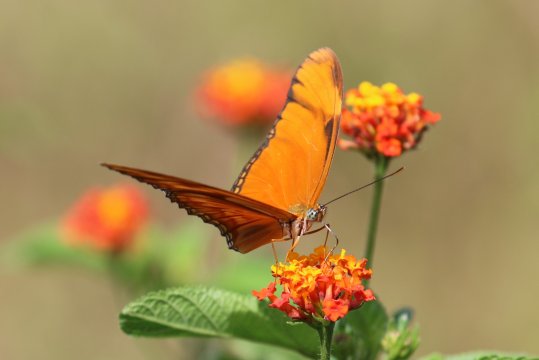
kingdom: Animalia
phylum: Arthropoda
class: Insecta
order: Lepidoptera
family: Nymphalidae
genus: Dryas
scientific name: Dryas iulia
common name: Julia
